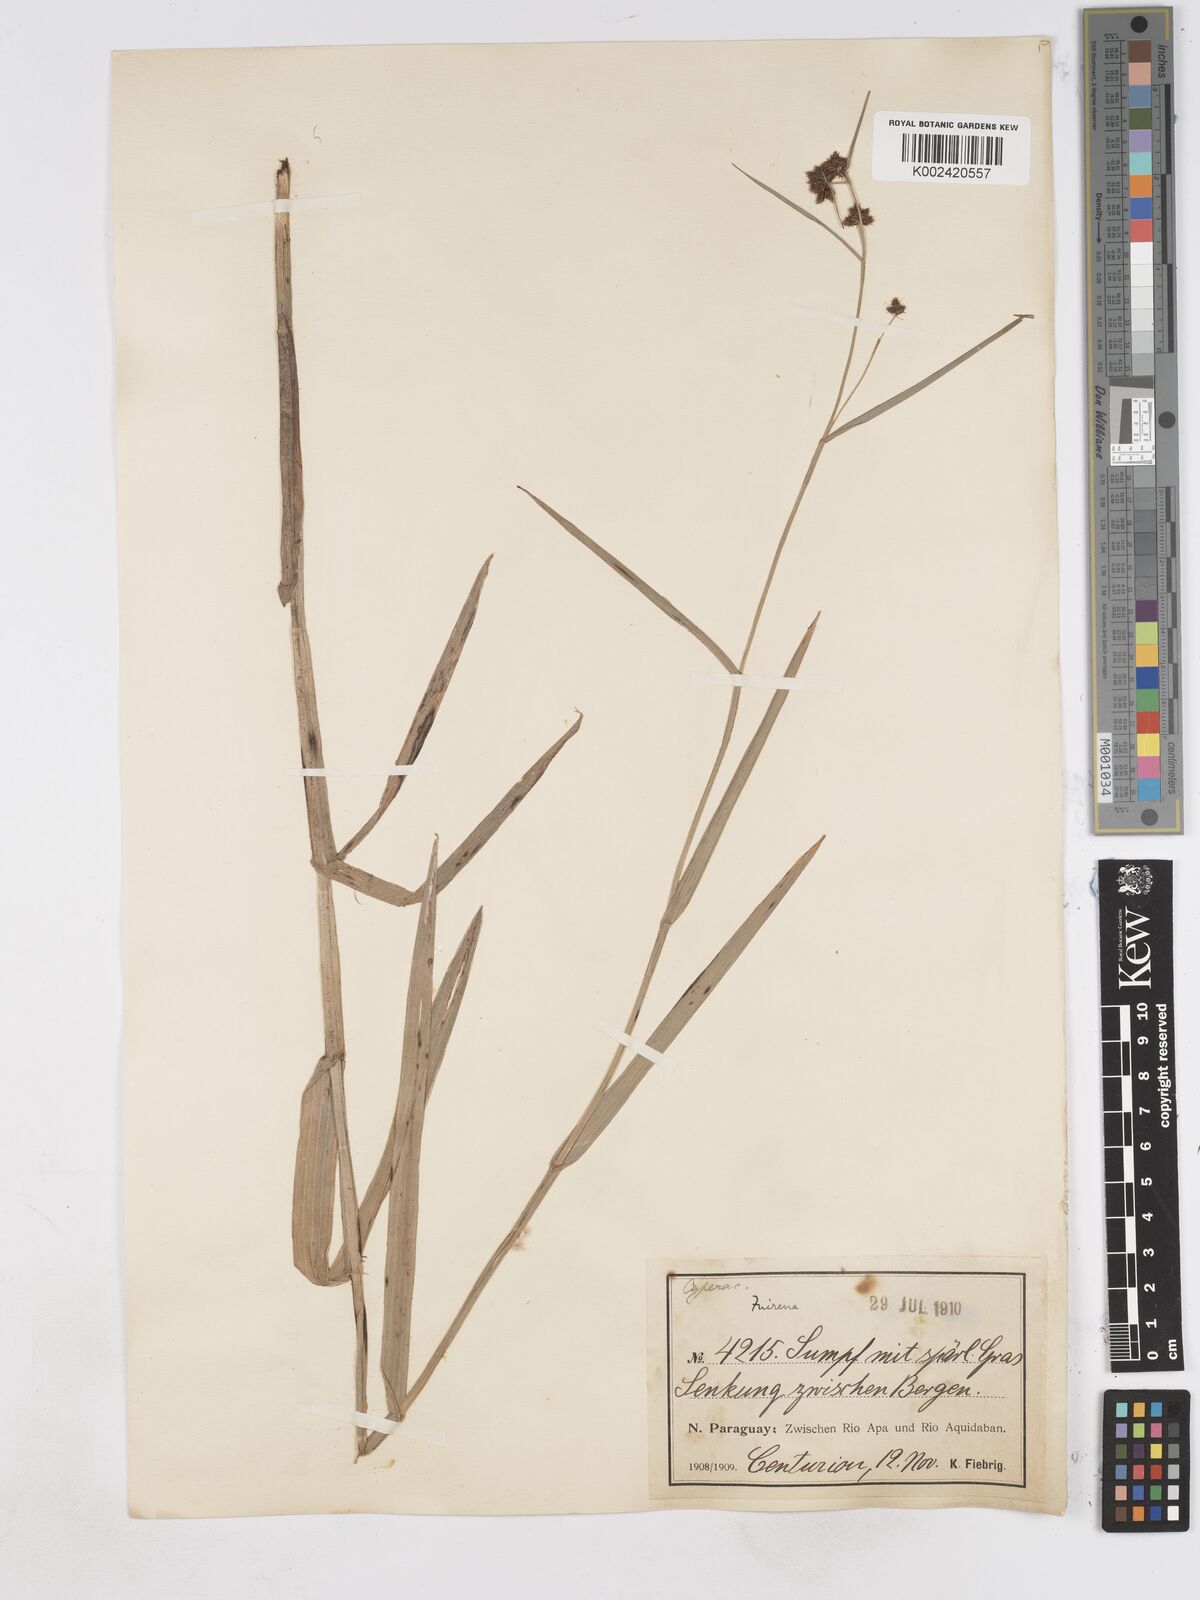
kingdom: Plantae
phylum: Tracheophyta
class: Liliopsida
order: Poales
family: Cyperaceae
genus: Fuirena
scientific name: Fuirena umbellata
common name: Yefen
